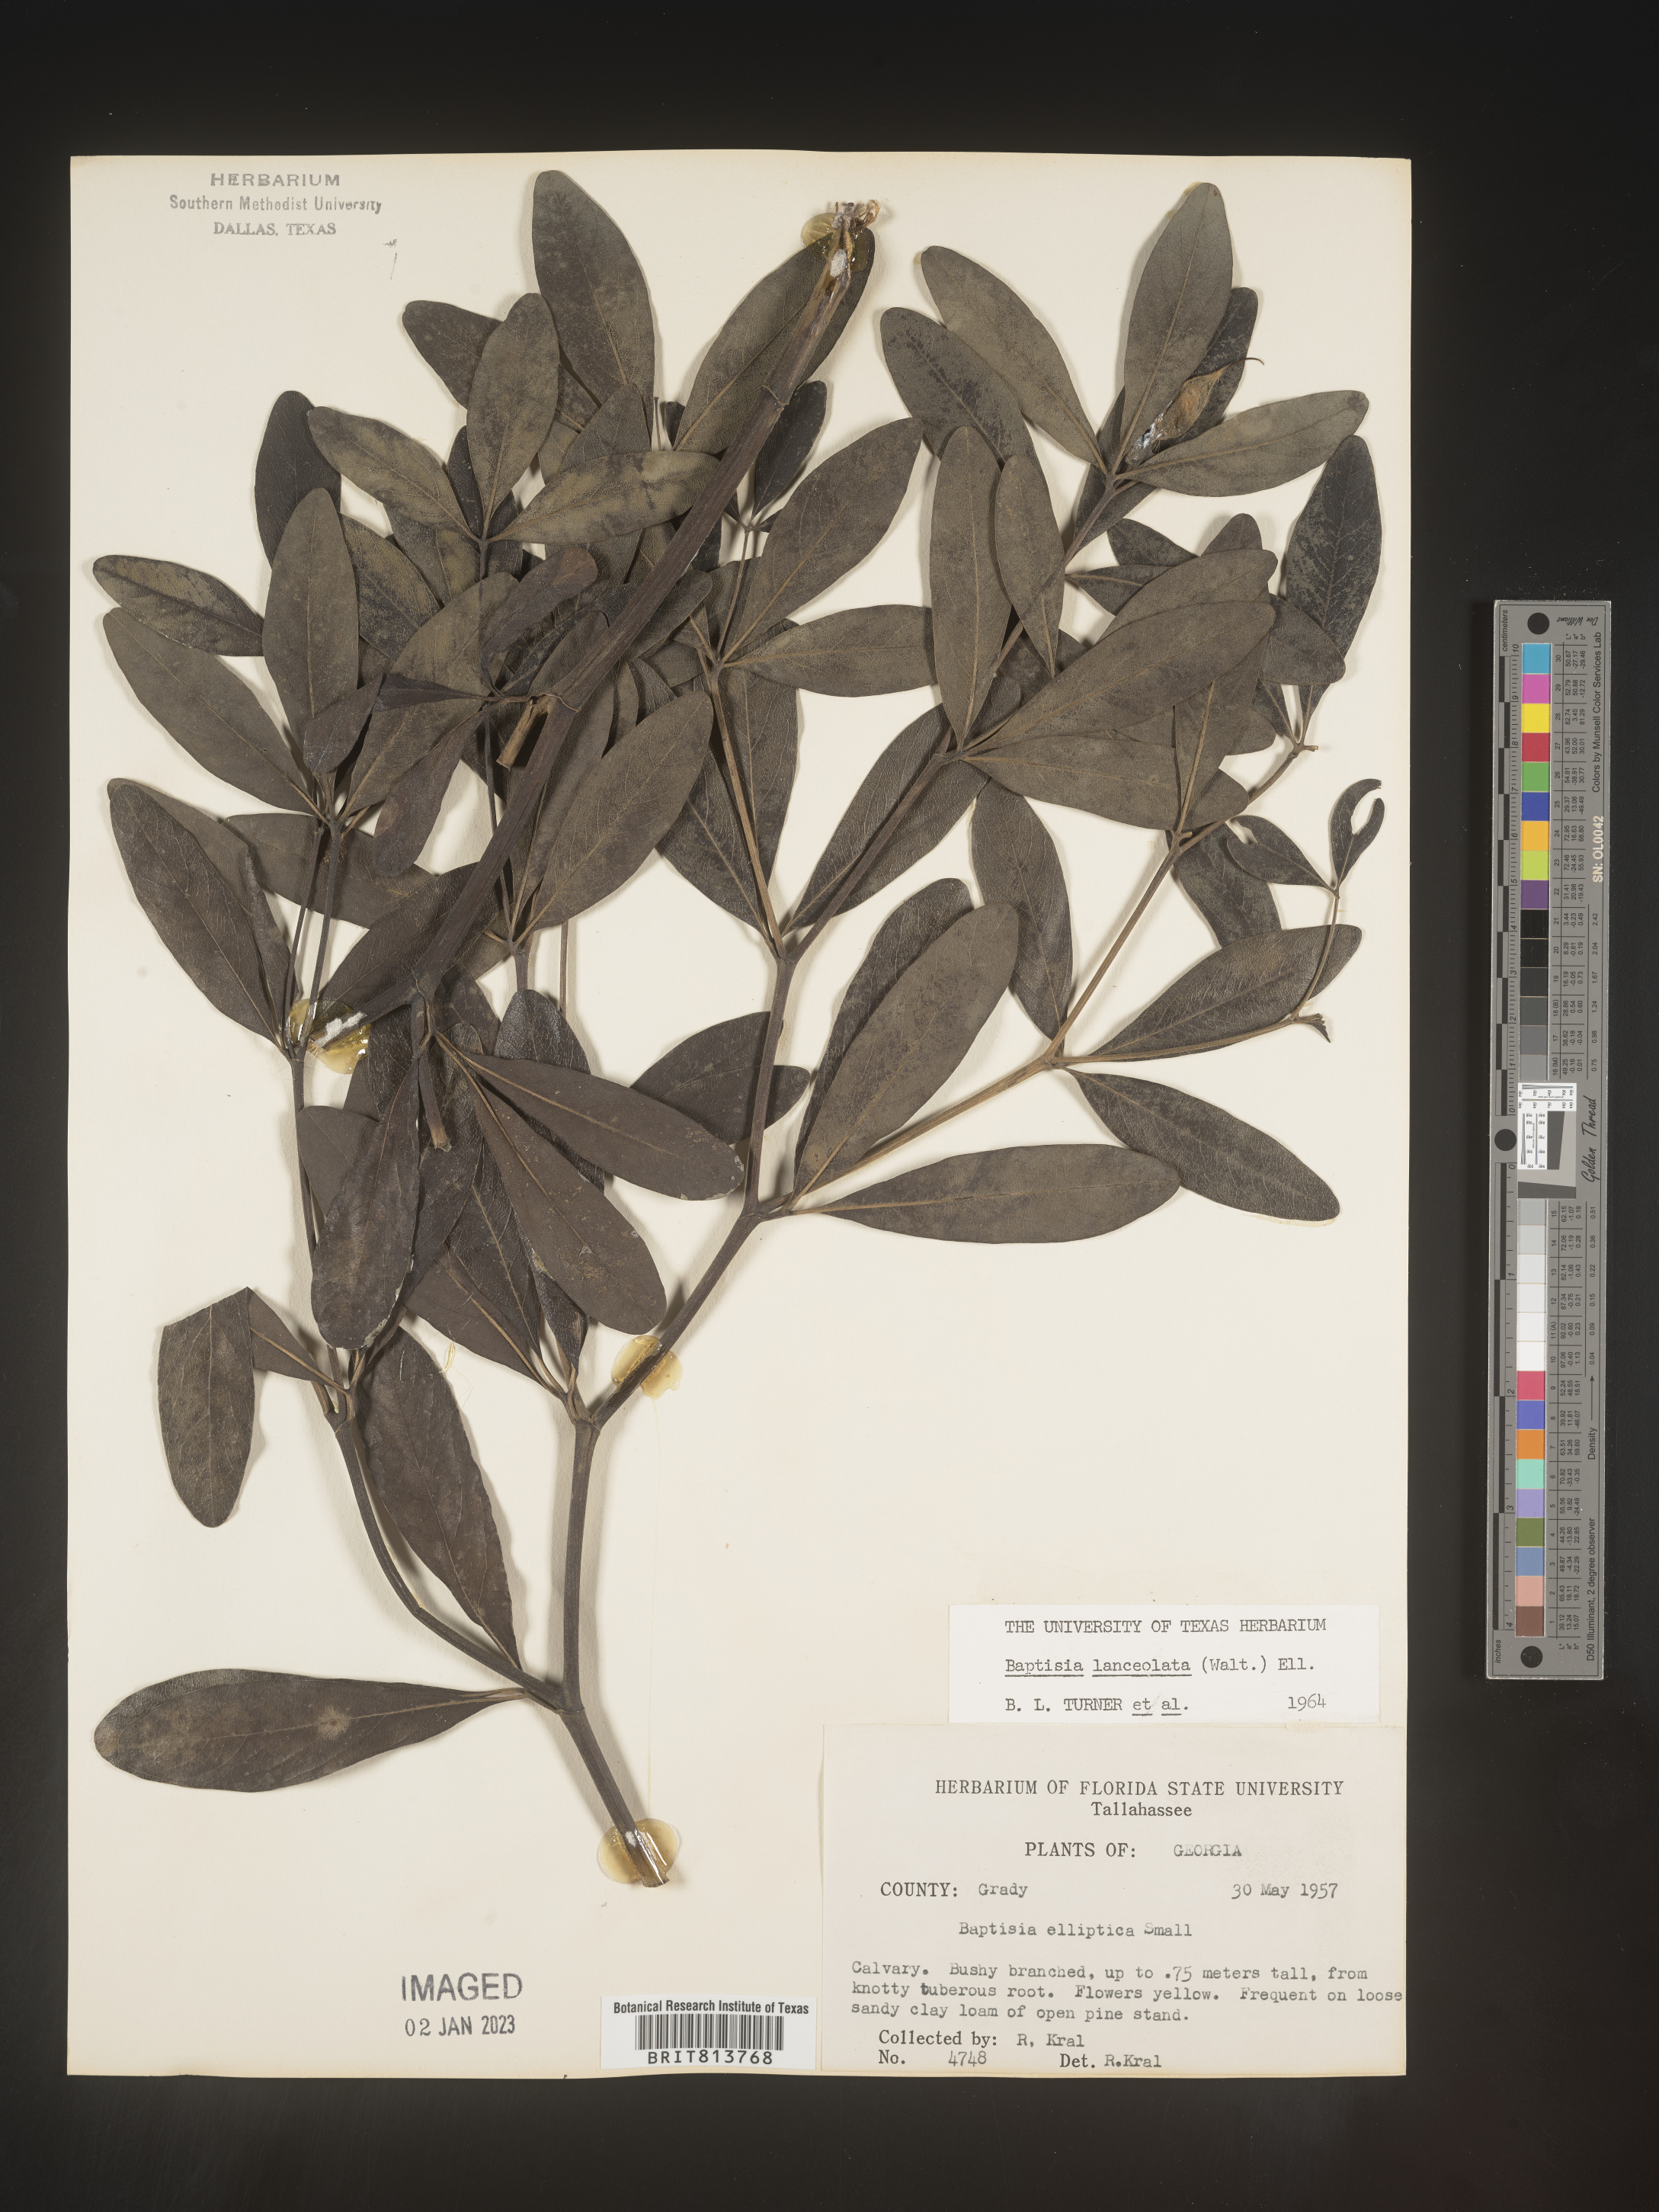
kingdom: Plantae
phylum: Tracheophyta
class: Magnoliopsida
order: Fabales
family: Fabaceae
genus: Baptisia
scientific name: Baptisia lanceolata
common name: Gopherweed
